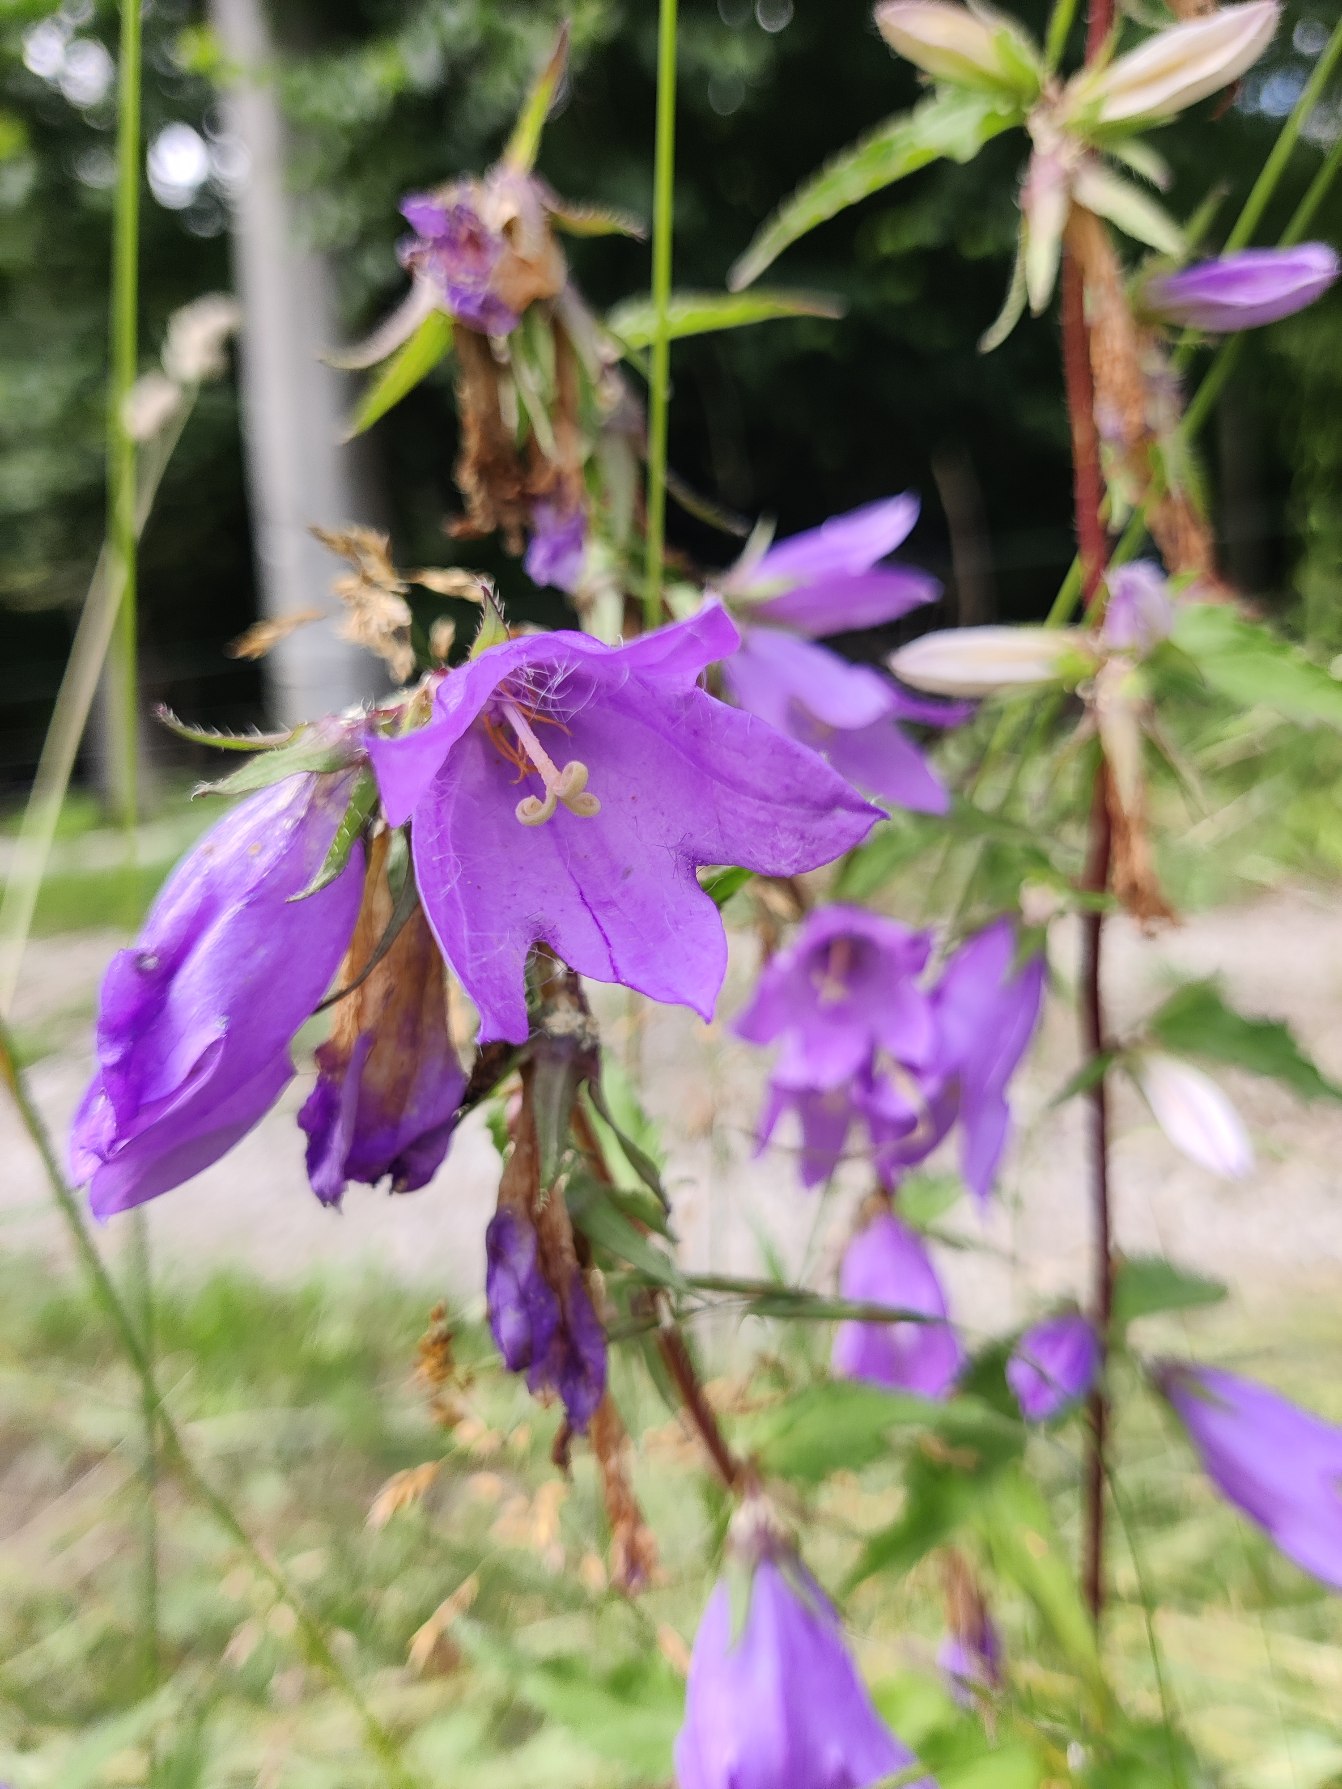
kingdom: Plantae
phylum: Tracheophyta
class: Magnoliopsida
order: Asterales
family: Campanulaceae
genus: Campanula
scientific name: Campanula trachelium
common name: Nælde-klokke
